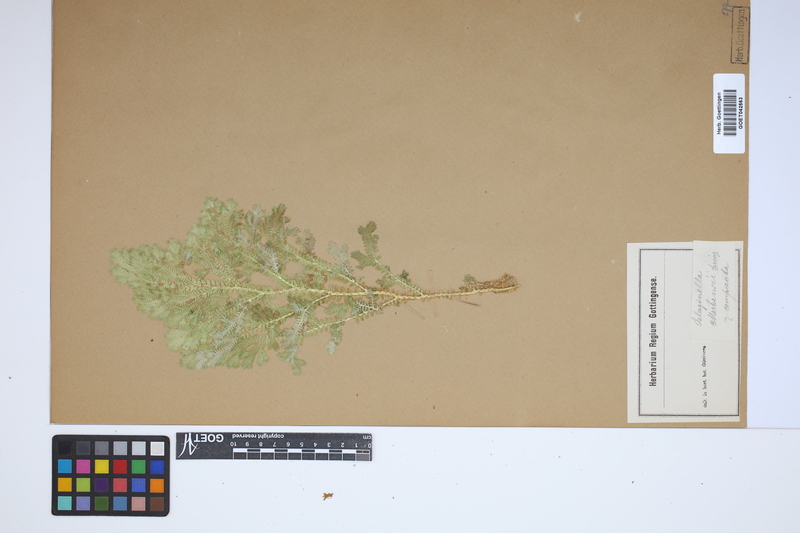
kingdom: Plantae
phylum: Tracheophyta
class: Lycopodiopsida
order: Selaginellales
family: Selaginellaceae
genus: Selaginella
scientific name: Selaginella martensii
